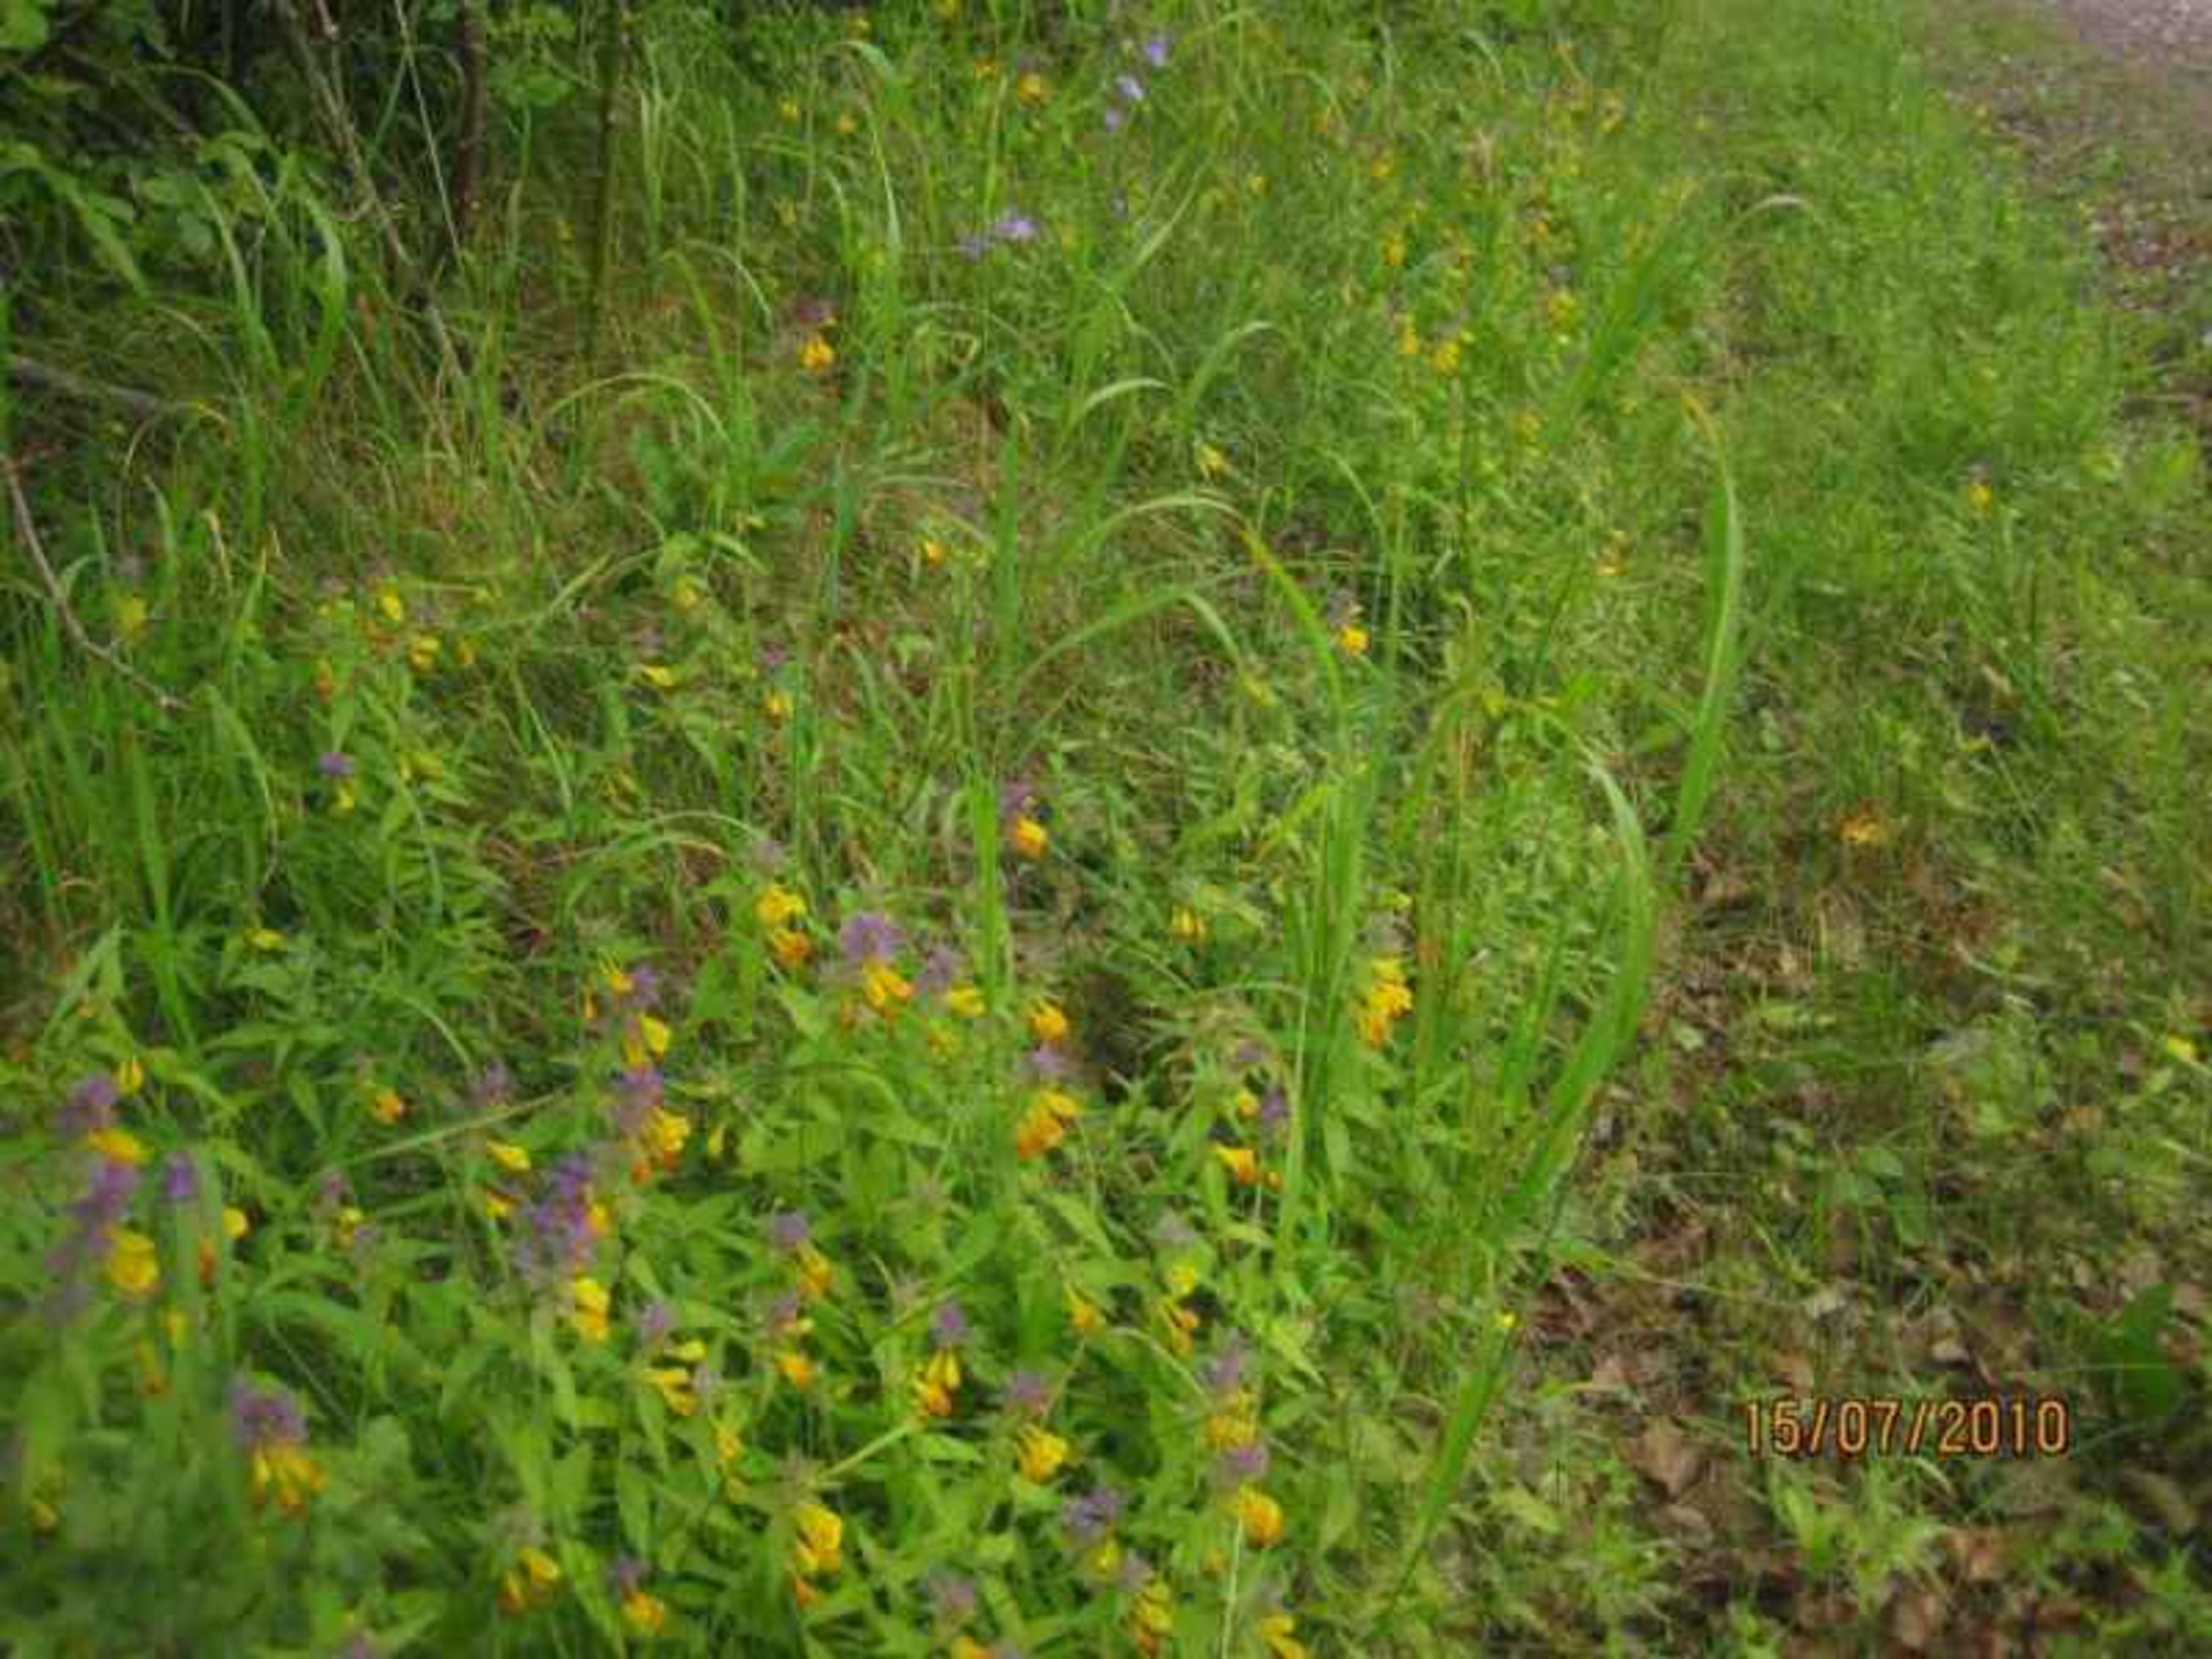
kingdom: Plantae
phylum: Tracheophyta
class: Magnoliopsida
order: Lamiales
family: Orobanchaceae
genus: Melampyrum
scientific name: Melampyrum nemorosum
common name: Blåtoppet kohvede
